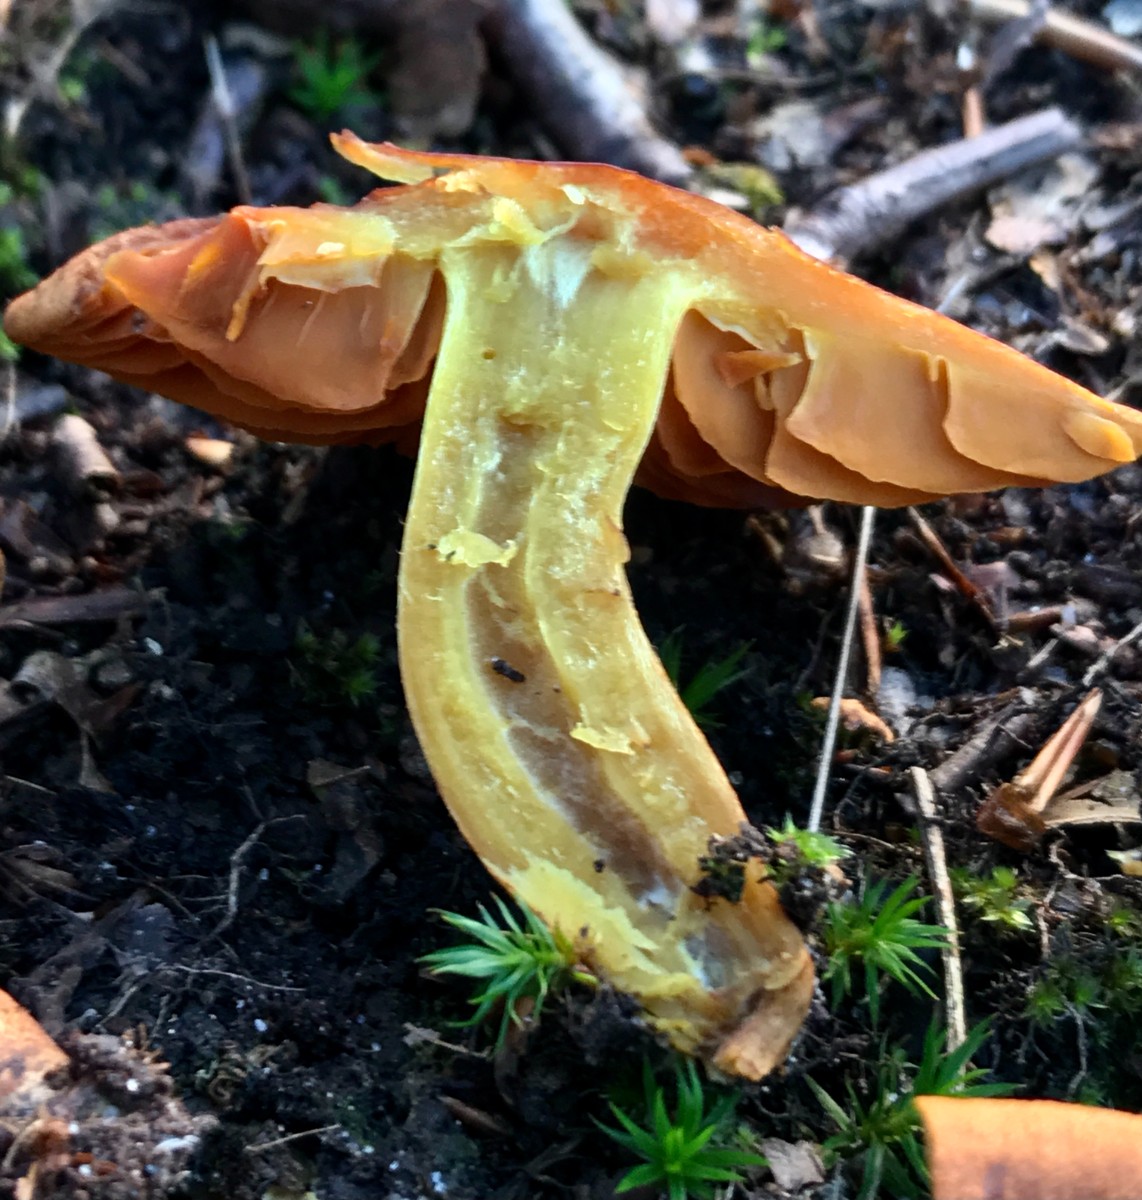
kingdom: Fungi
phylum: Basidiomycota
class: Agaricomycetes
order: Agaricales
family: Cortinariaceae
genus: Cortinarius
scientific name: Cortinarius malicorius
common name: grønkødet slørhat
